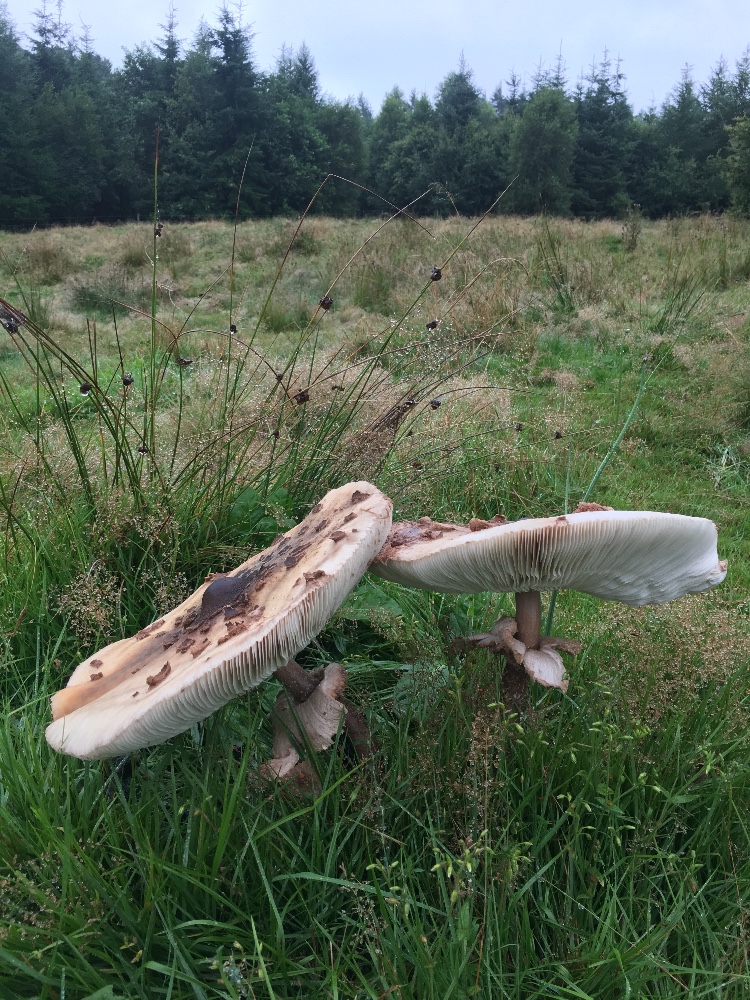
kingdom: Fungi
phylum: Basidiomycota
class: Agaricomycetes
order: Agaricales
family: Agaricaceae
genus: Macrolepiota
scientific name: Macrolepiota procera
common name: stor kæmpeparasolhat
